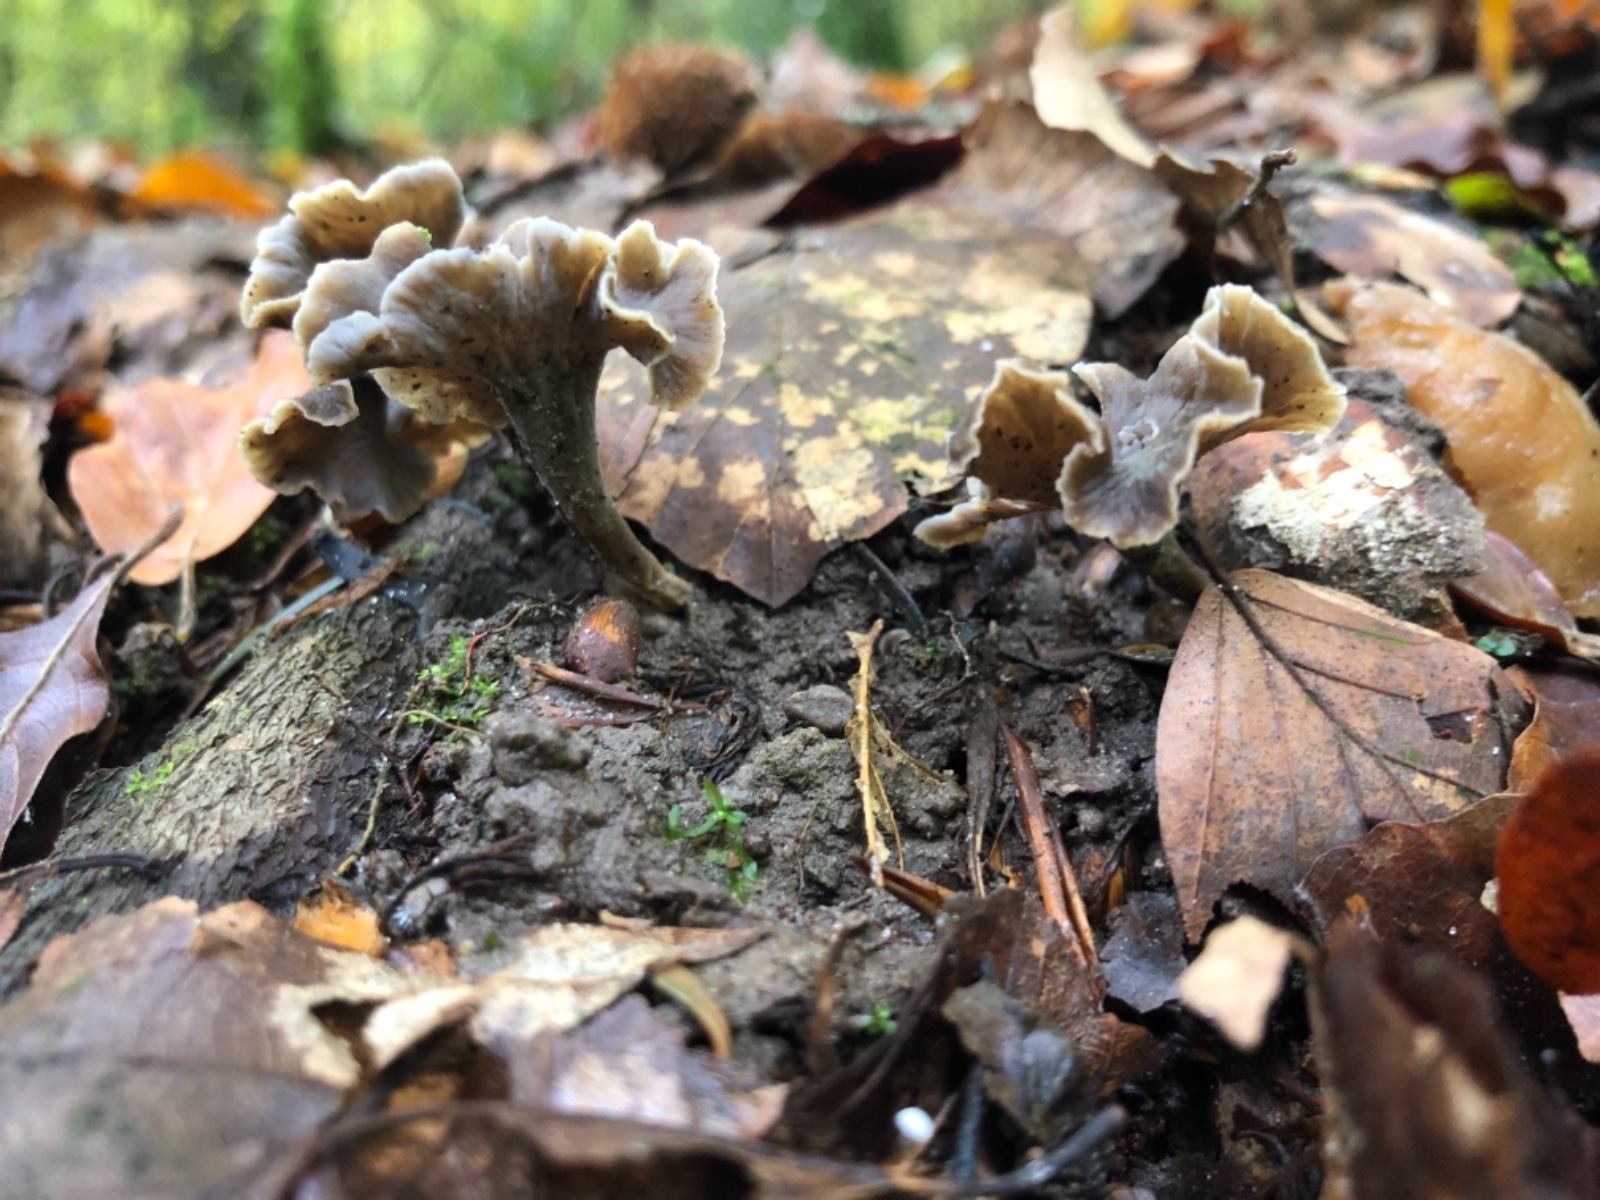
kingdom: Fungi
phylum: Basidiomycota
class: Agaricomycetes
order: Cantharellales
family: Hydnaceae
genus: Craterellus
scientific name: Craterellus undulatus
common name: liden kantarel
